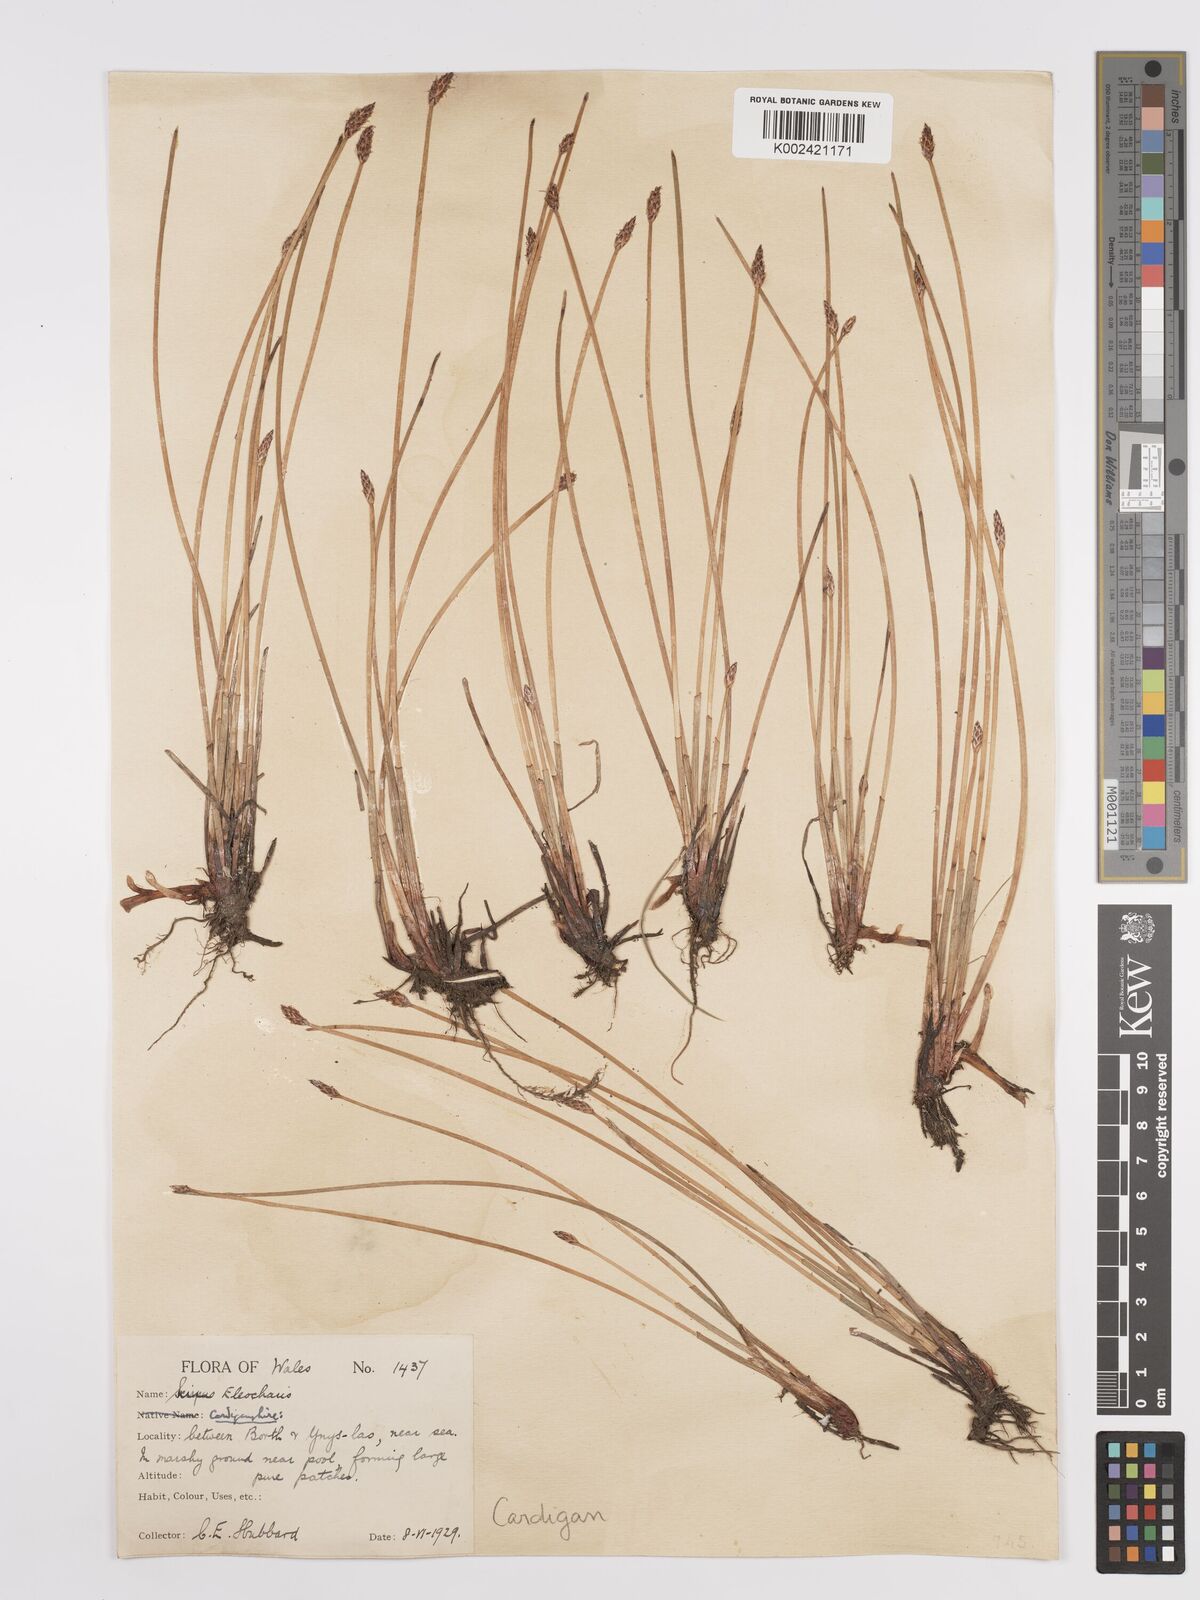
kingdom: Plantae
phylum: Tracheophyta
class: Liliopsida
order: Poales
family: Cyperaceae
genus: Eleocharis
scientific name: Eleocharis palustris
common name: Common spike-rush
